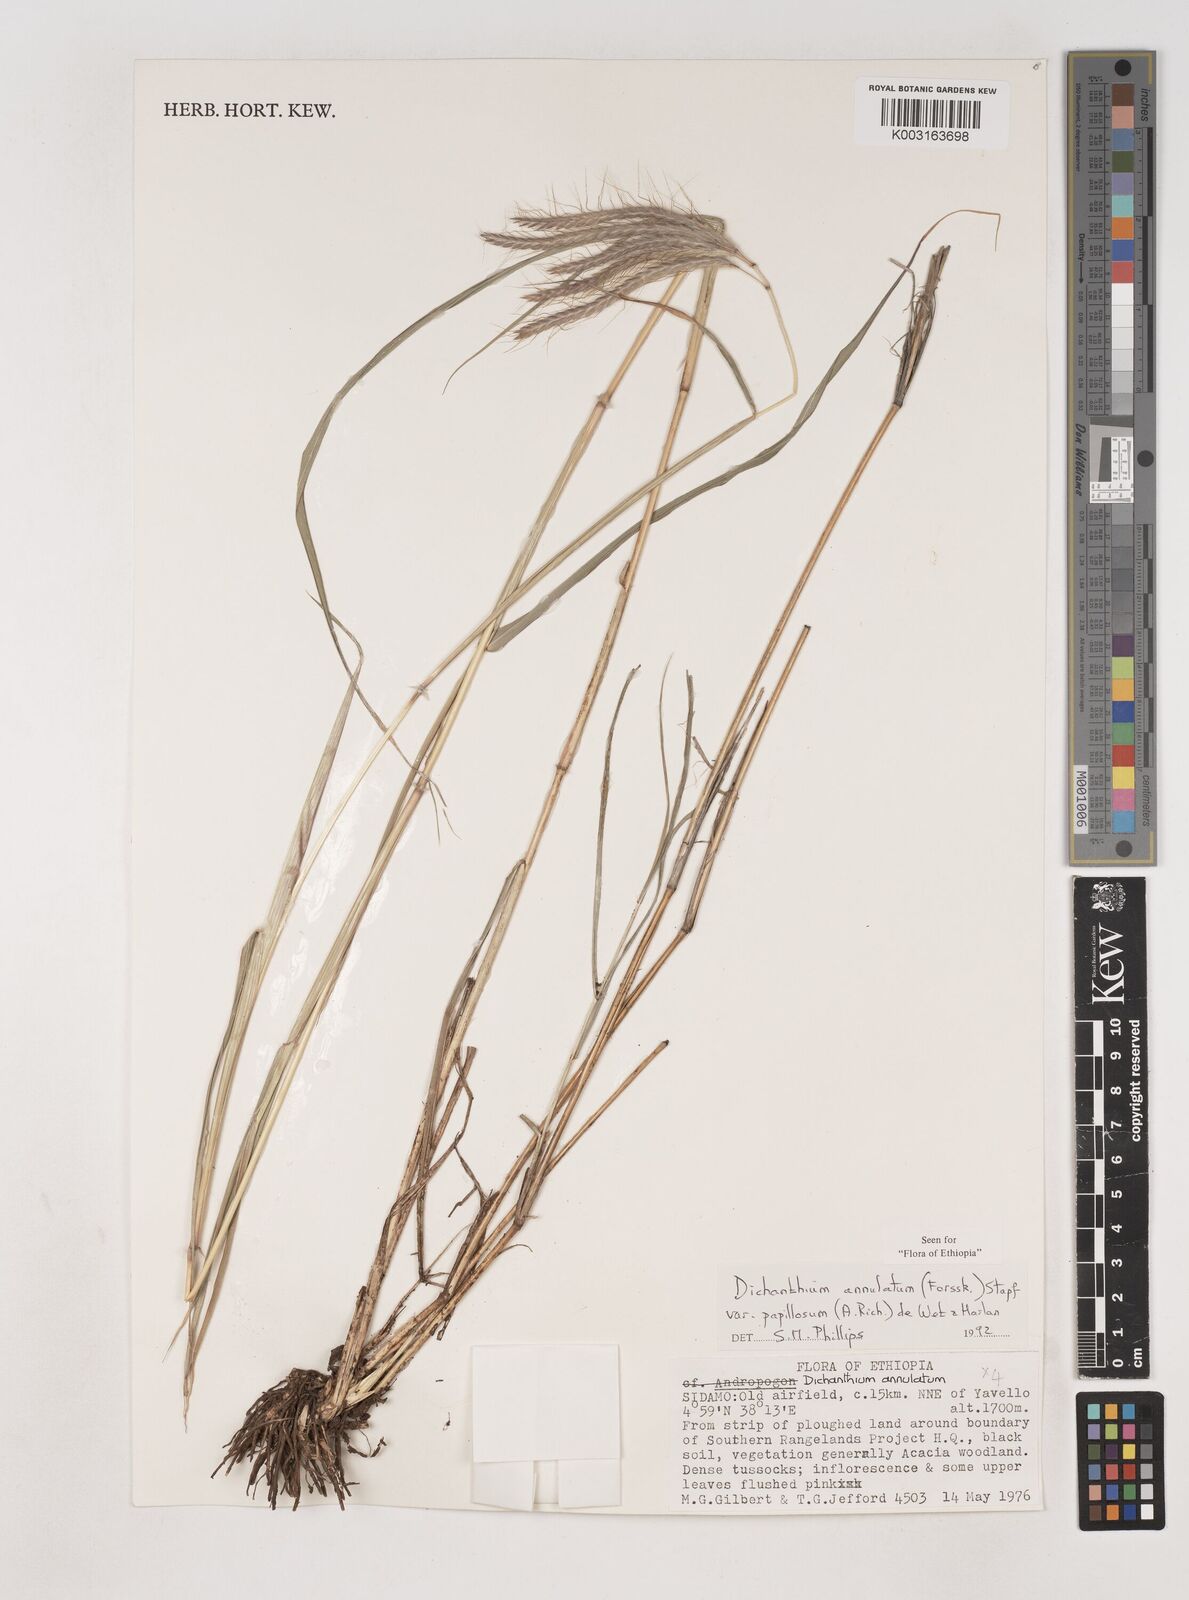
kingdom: Plantae
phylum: Tracheophyta
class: Liliopsida
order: Poales
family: Poaceae
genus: Dichanthium
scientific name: Dichanthium annulatum
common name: Kleberg's bluestem
